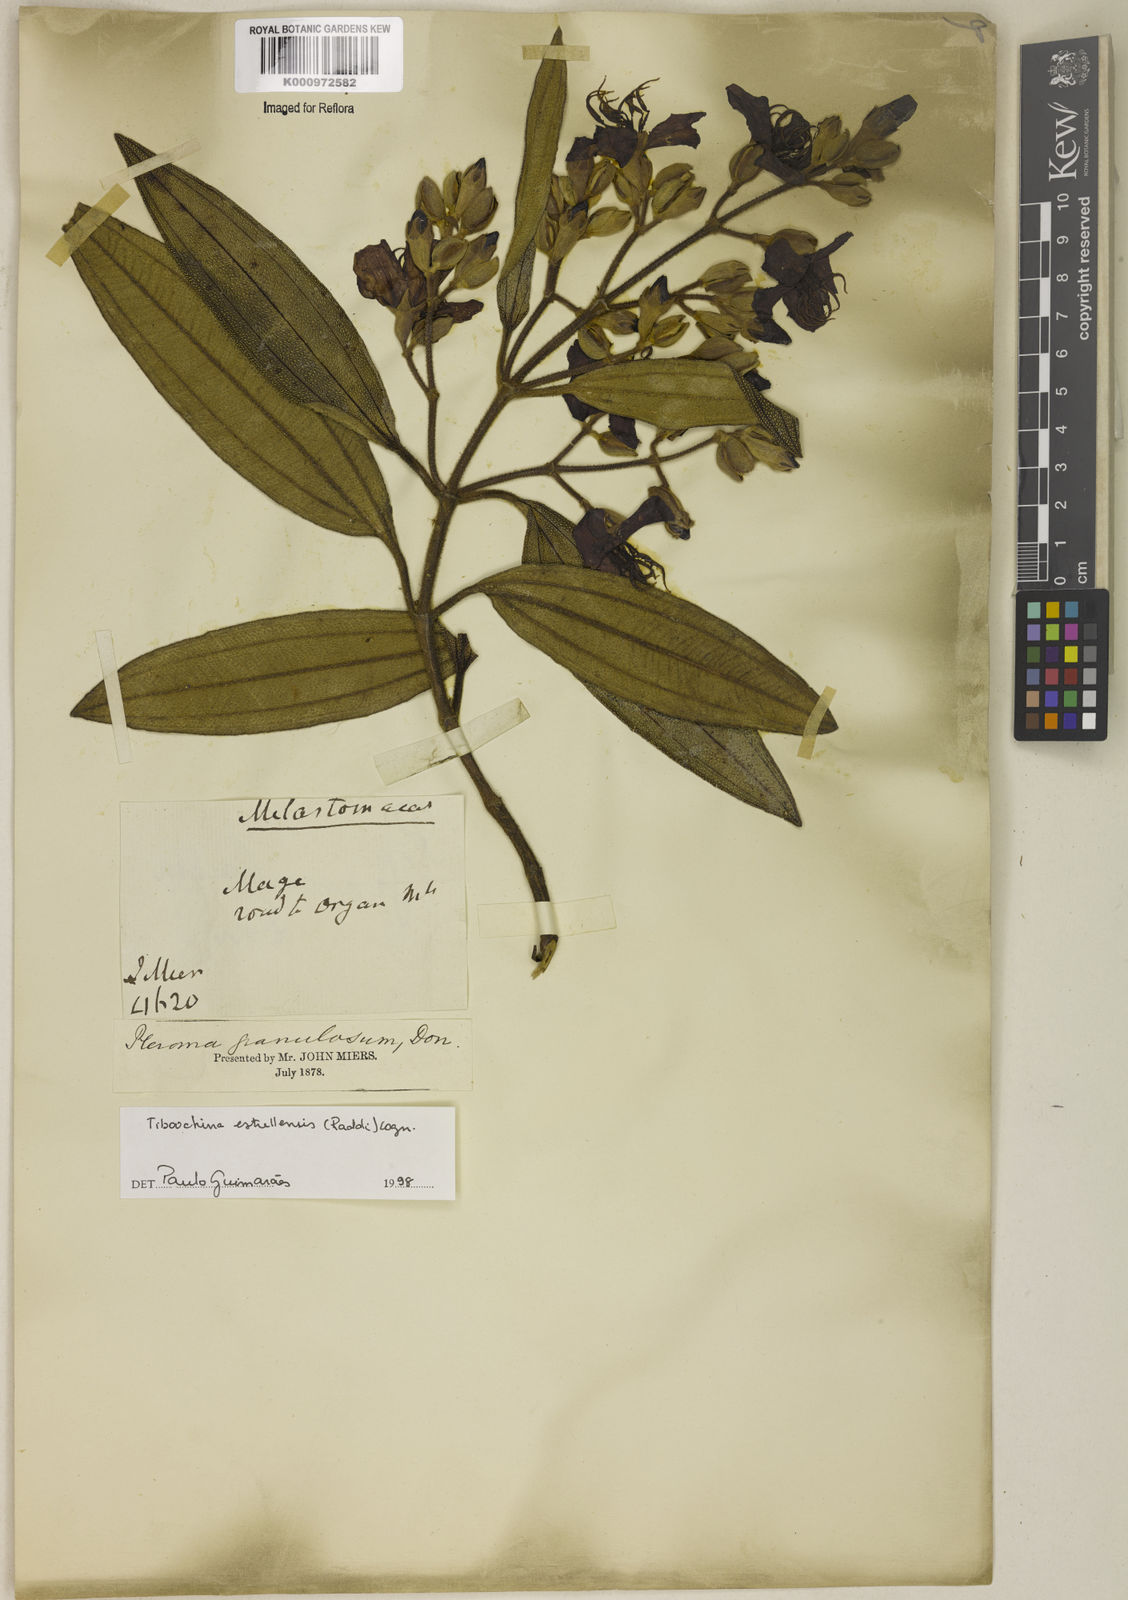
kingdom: Plantae
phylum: Tracheophyta
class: Magnoliopsida
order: Myrtales
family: Melastomataceae
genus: Pleroma
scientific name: Pleroma estrellense
